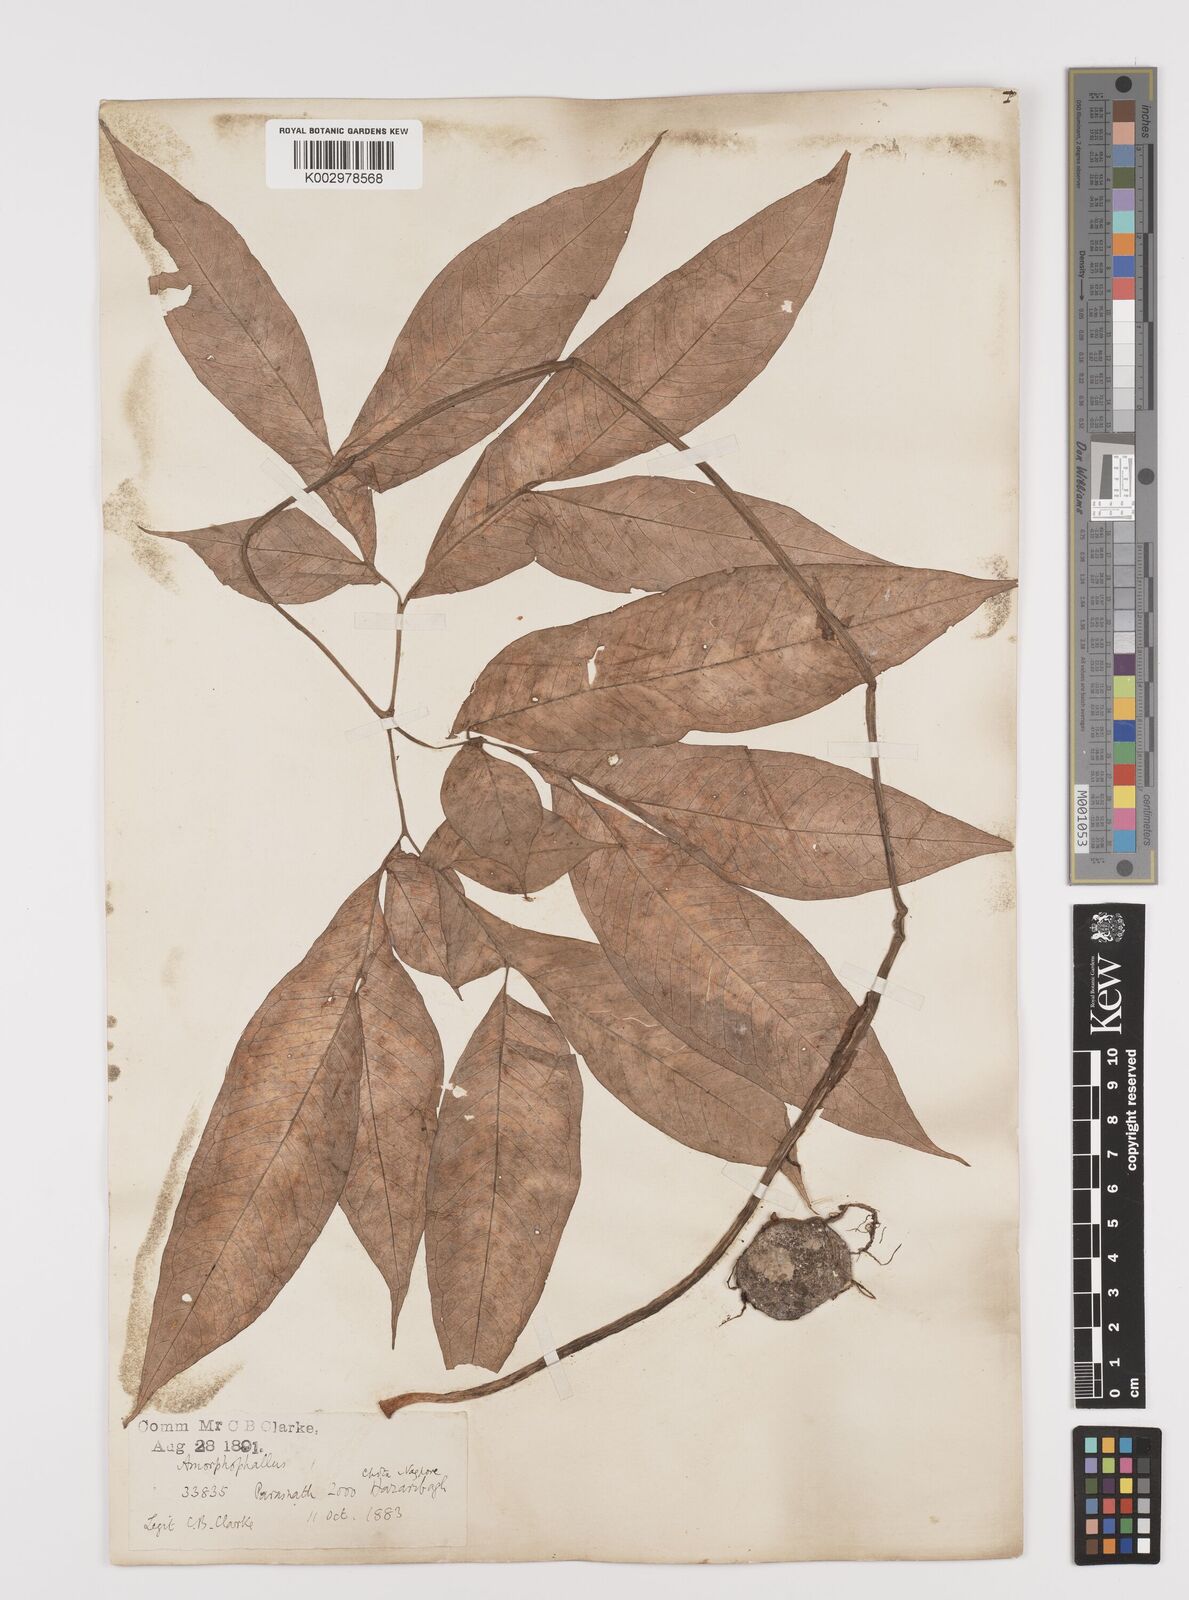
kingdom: Plantae
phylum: Tracheophyta
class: Liliopsida
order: Alismatales
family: Araceae
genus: Amorphophallus
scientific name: Amorphophallus
